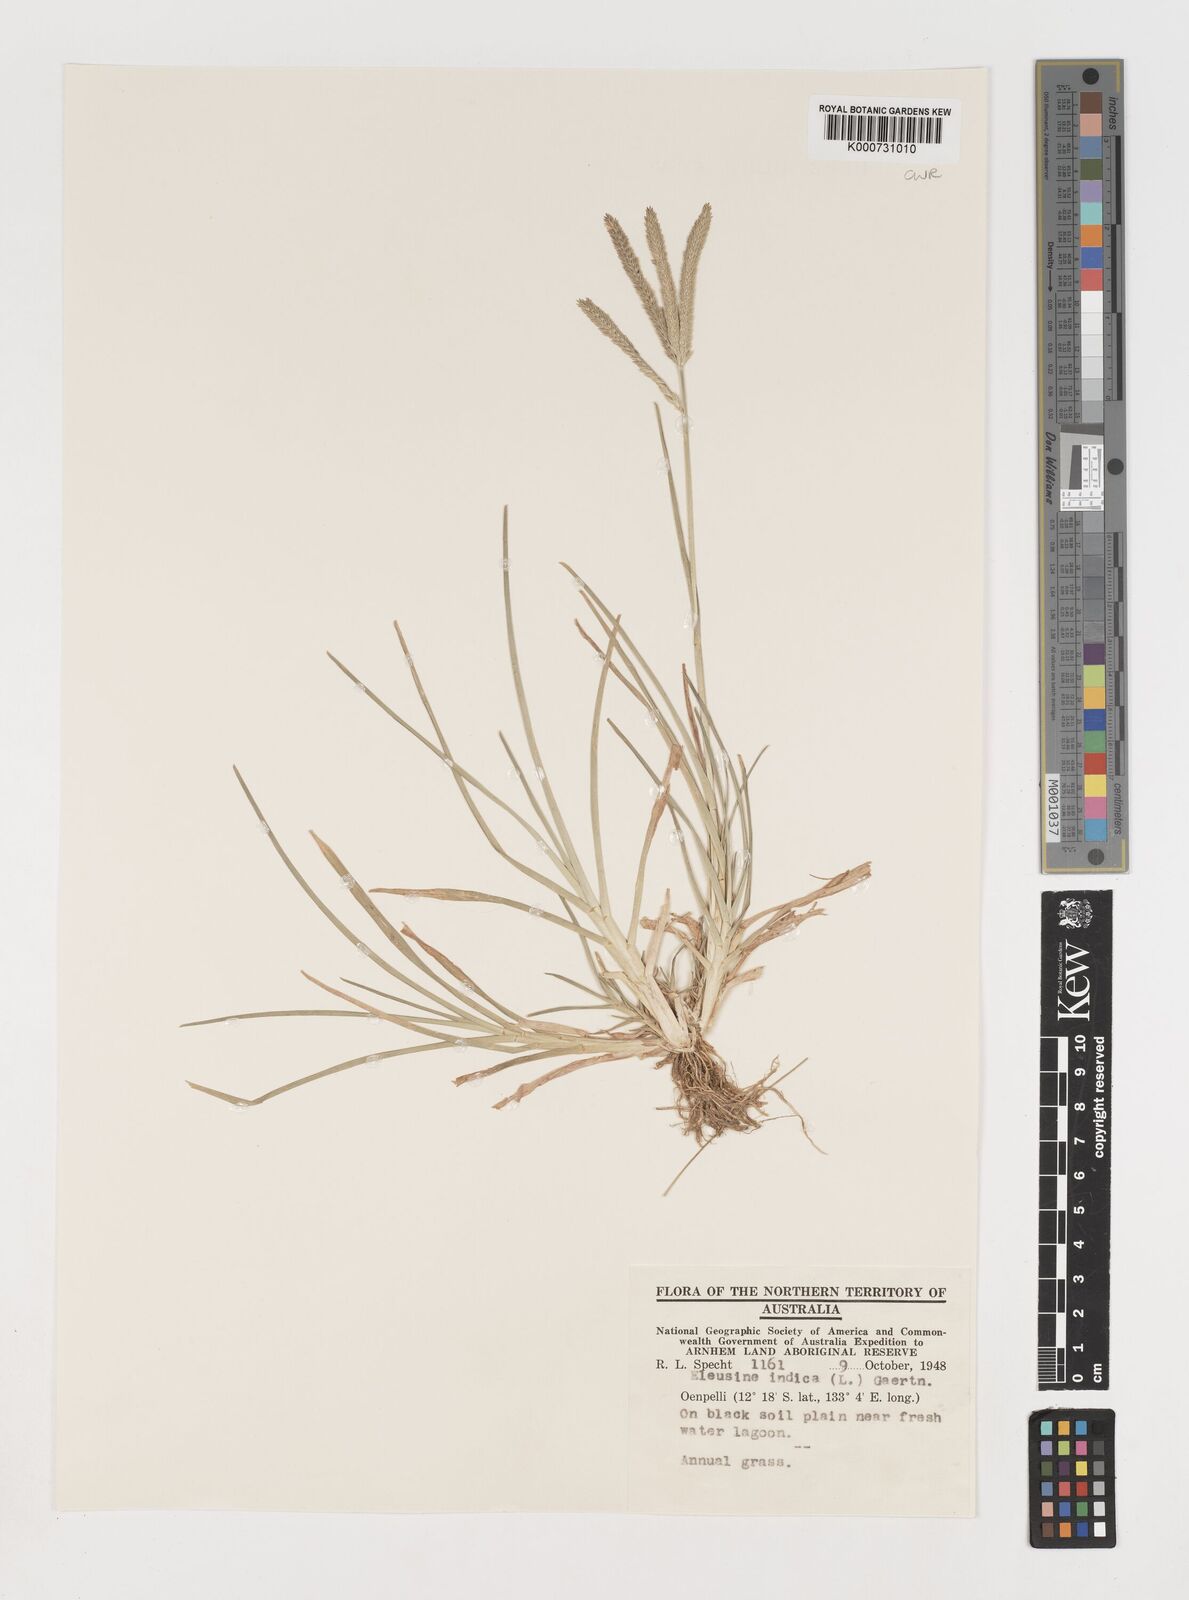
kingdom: Plantae
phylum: Tracheophyta
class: Liliopsida
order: Poales
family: Poaceae
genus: Eleusine
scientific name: Eleusine indica
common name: Yard-grass
